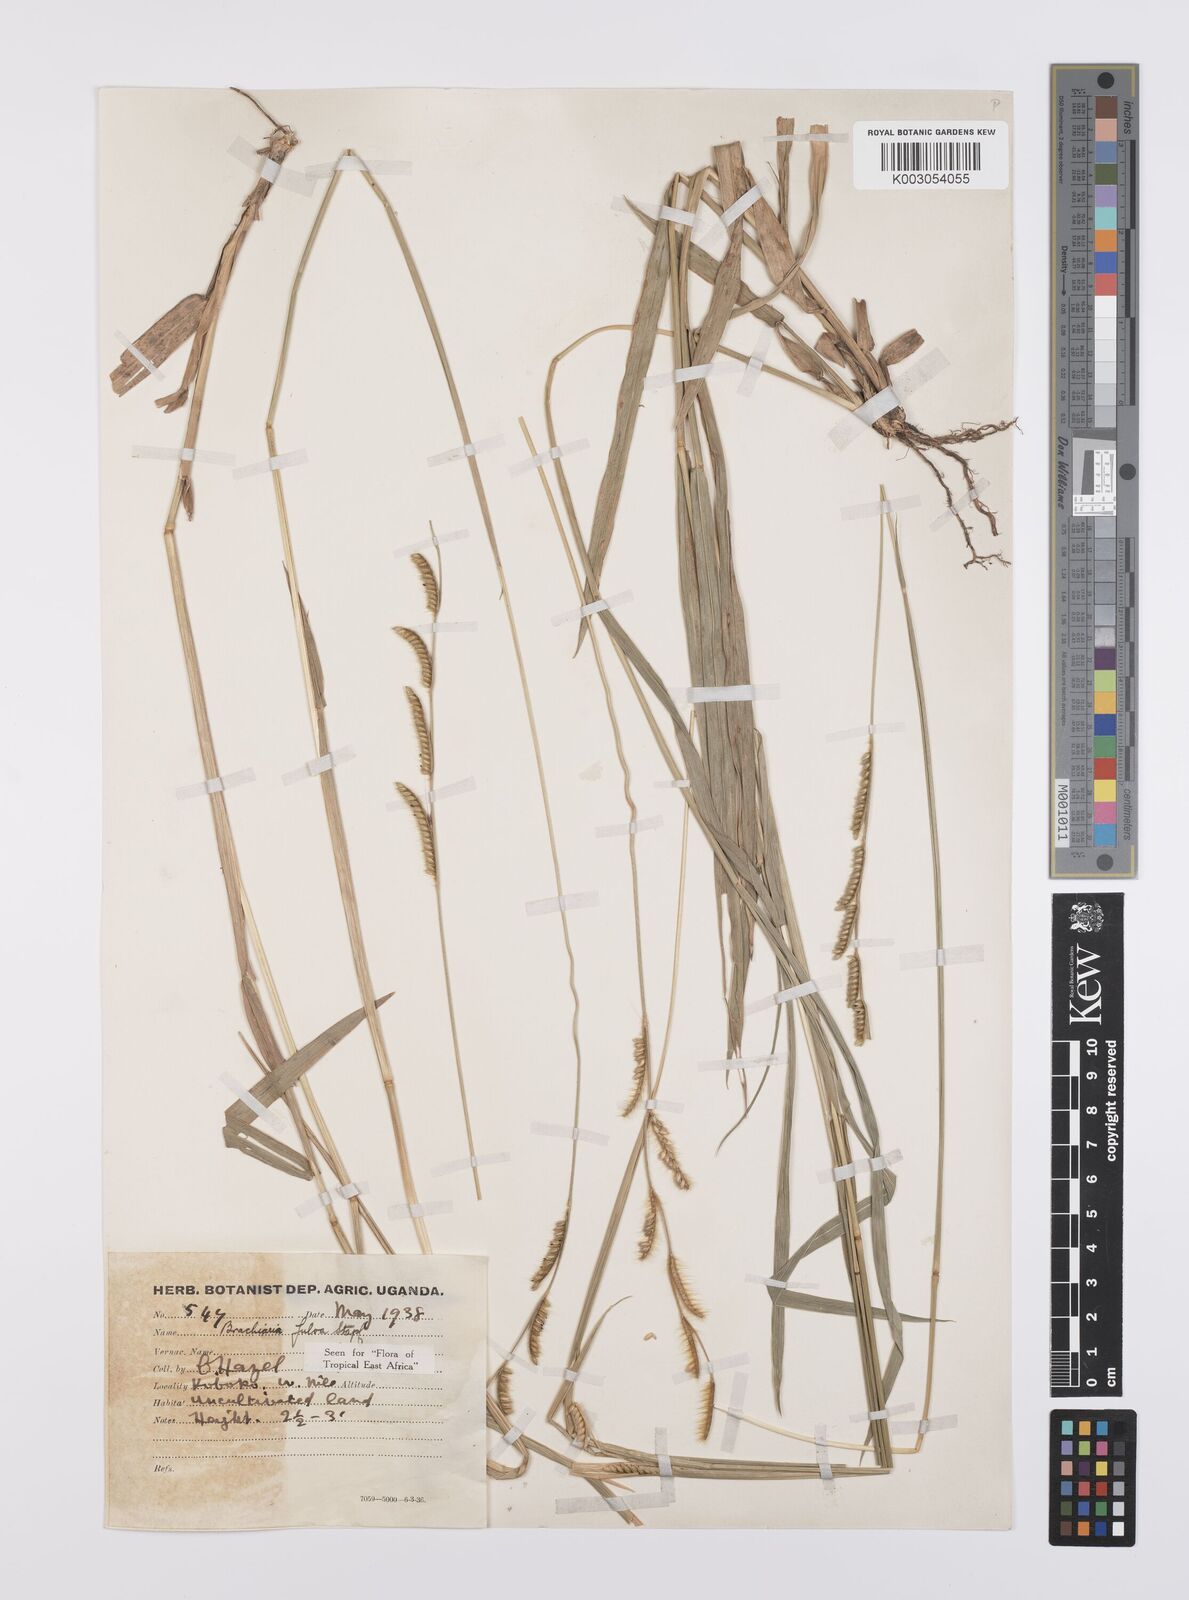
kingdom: Plantae
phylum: Tracheophyta
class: Liliopsida
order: Poales
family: Poaceae
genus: Urochloa
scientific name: Urochloa jubata
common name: Buffalograss
